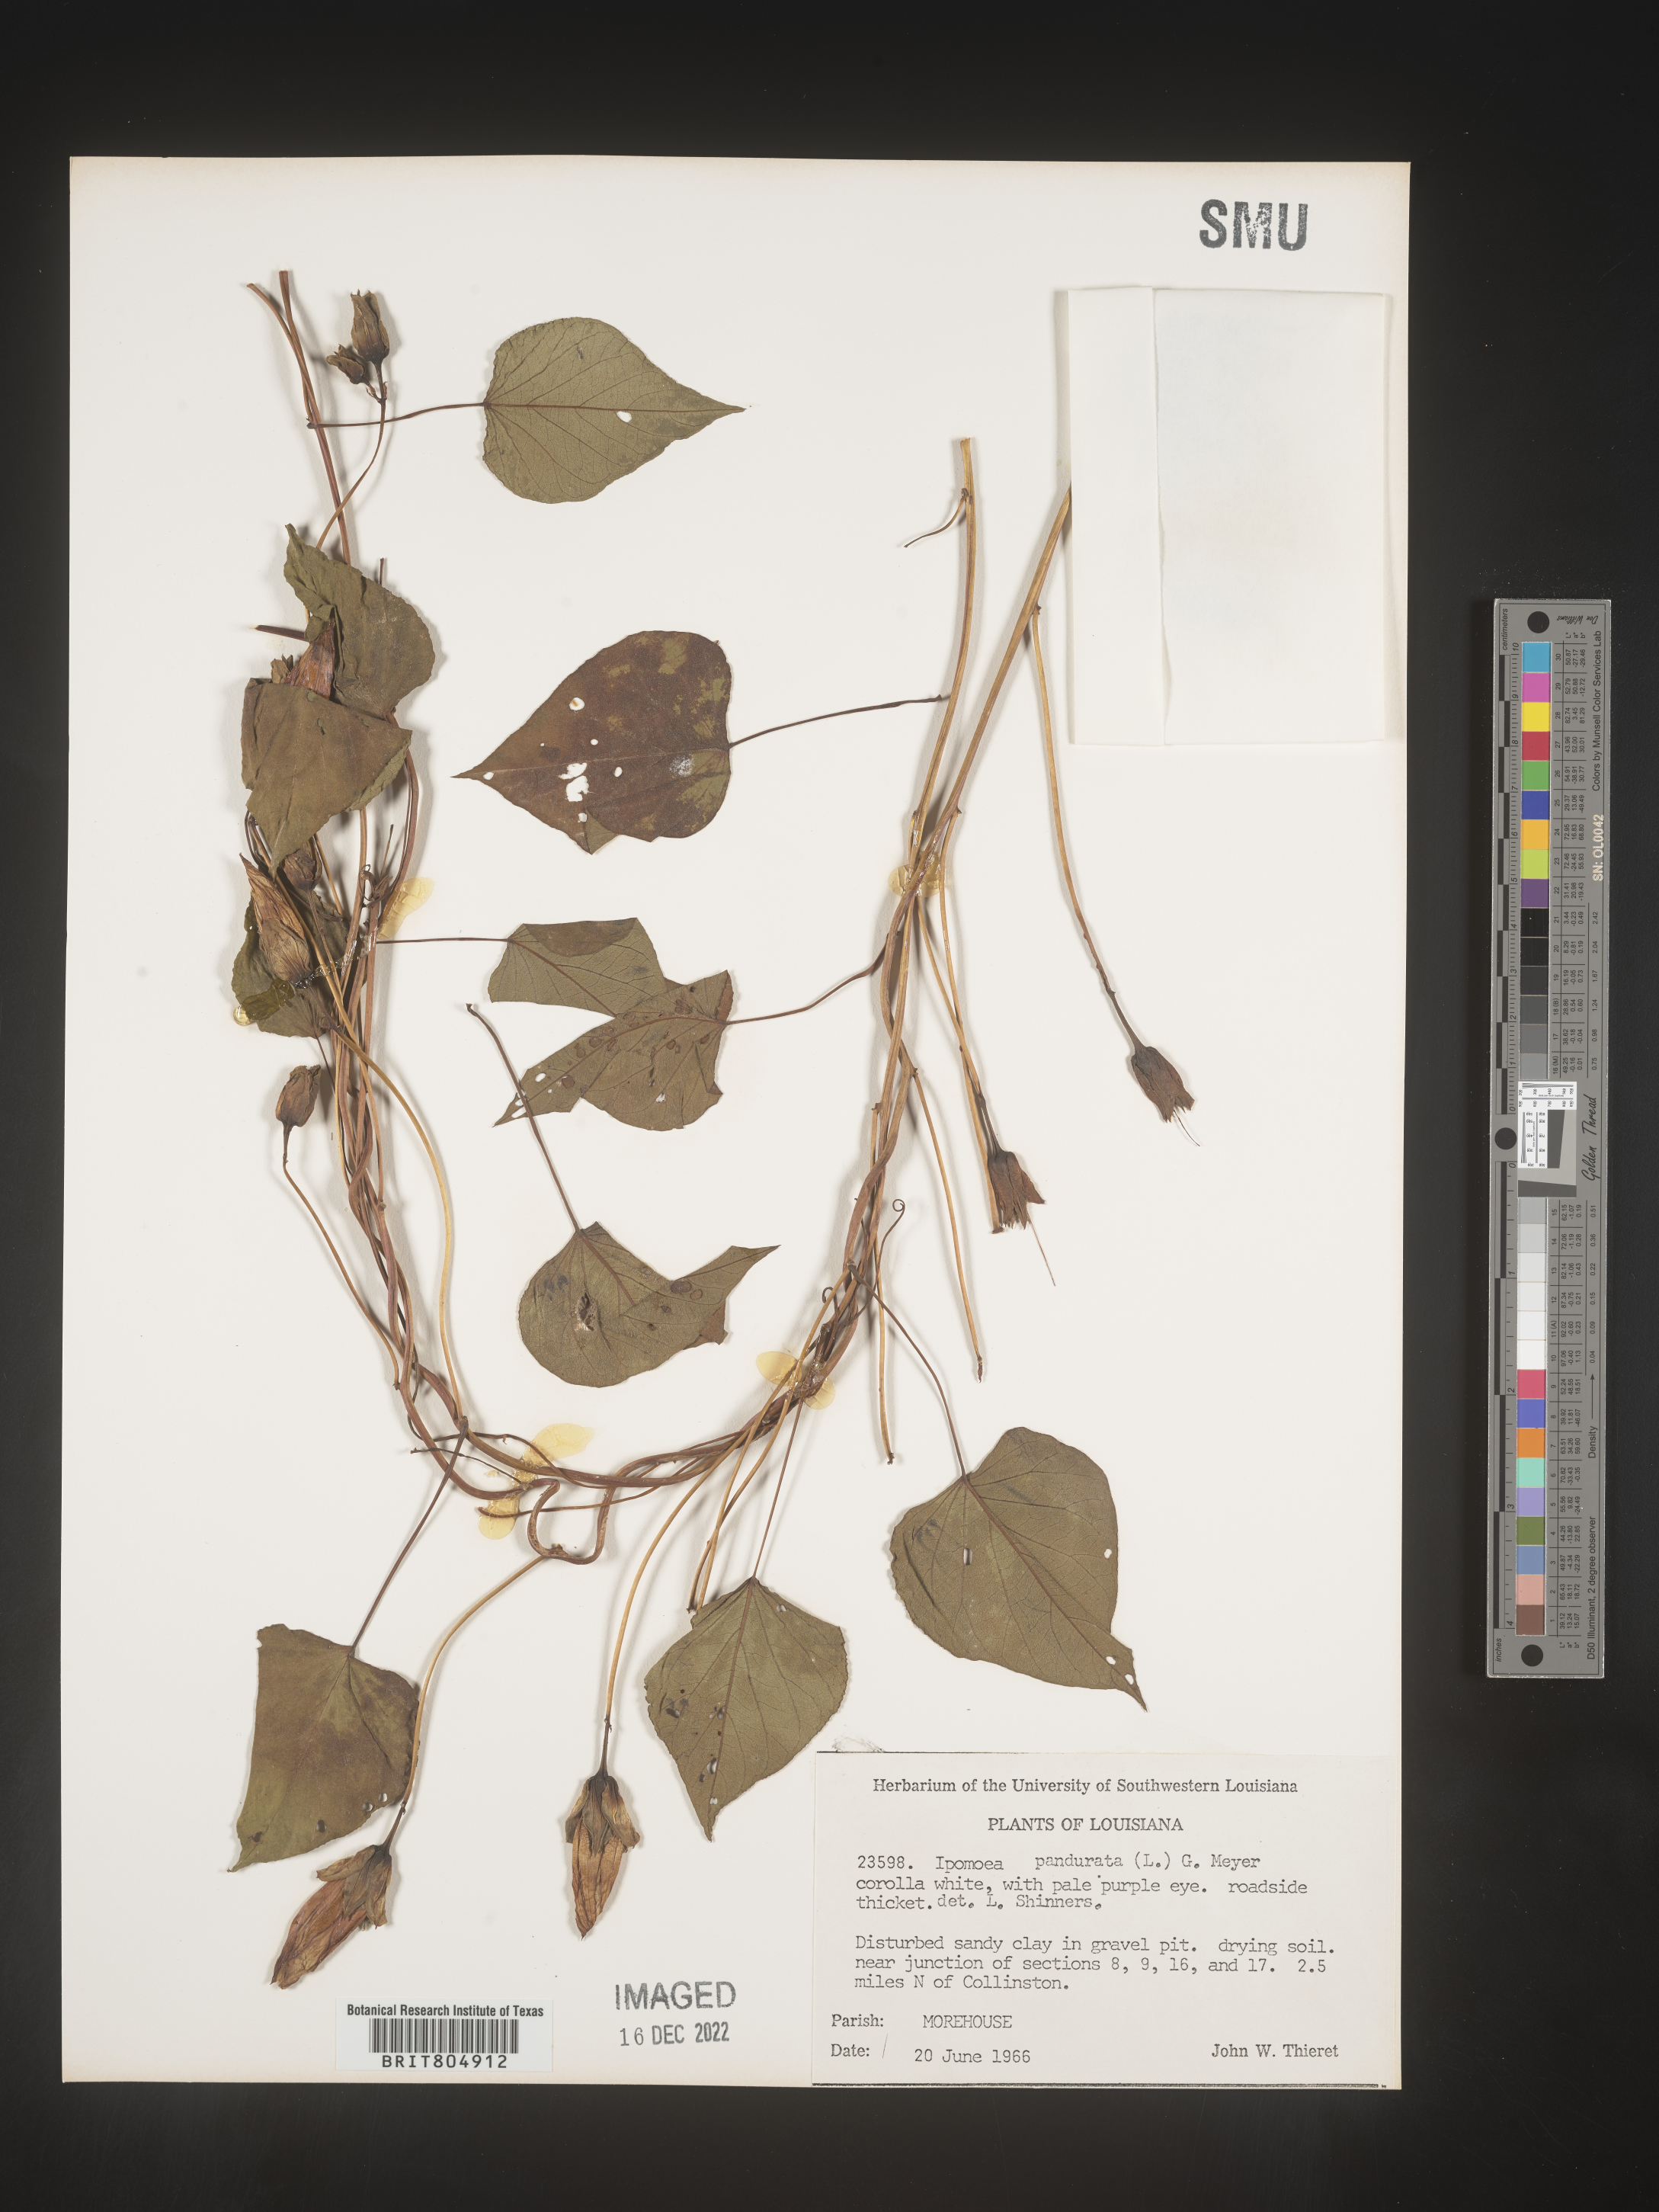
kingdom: Plantae
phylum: Tracheophyta
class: Magnoliopsida
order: Solanales
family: Convolvulaceae
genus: Ipomoea
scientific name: Ipomoea pandurata
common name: Man-of-the-earth
